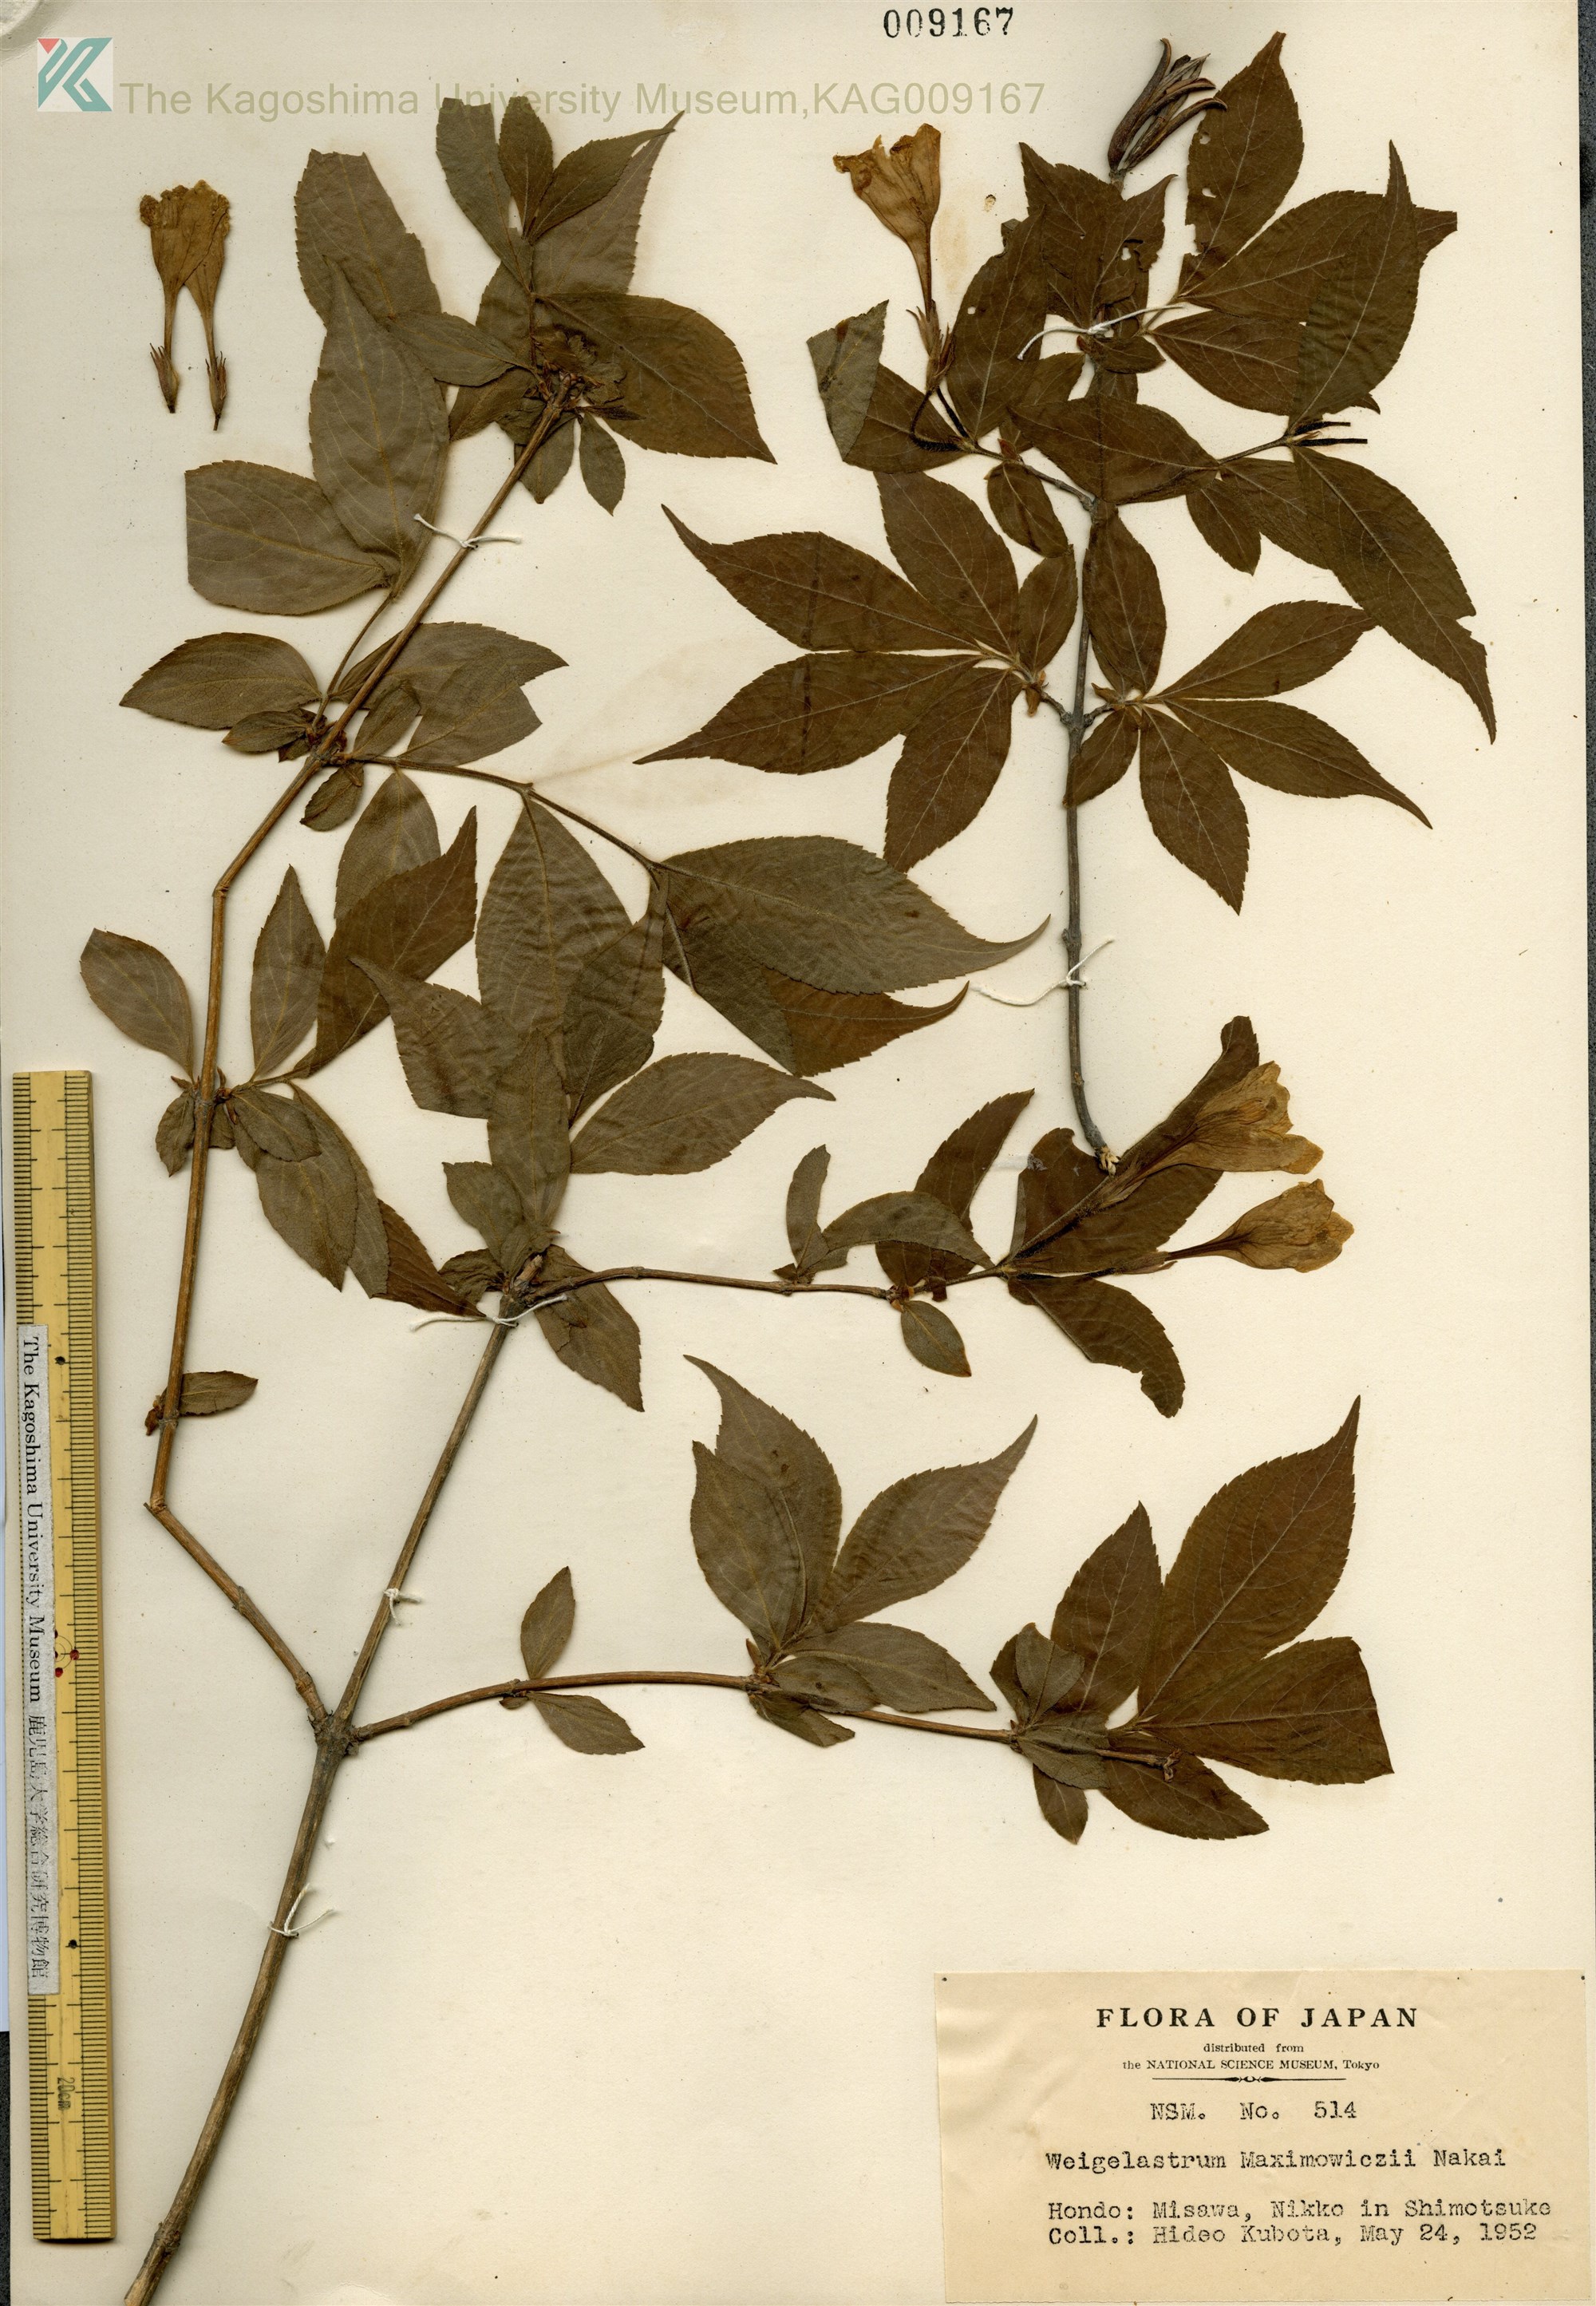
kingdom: Plantae
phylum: Tracheophyta
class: Magnoliopsida
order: Dipsacales
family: Caprifoliaceae
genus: Weigela
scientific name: Weigela maximowiczii
